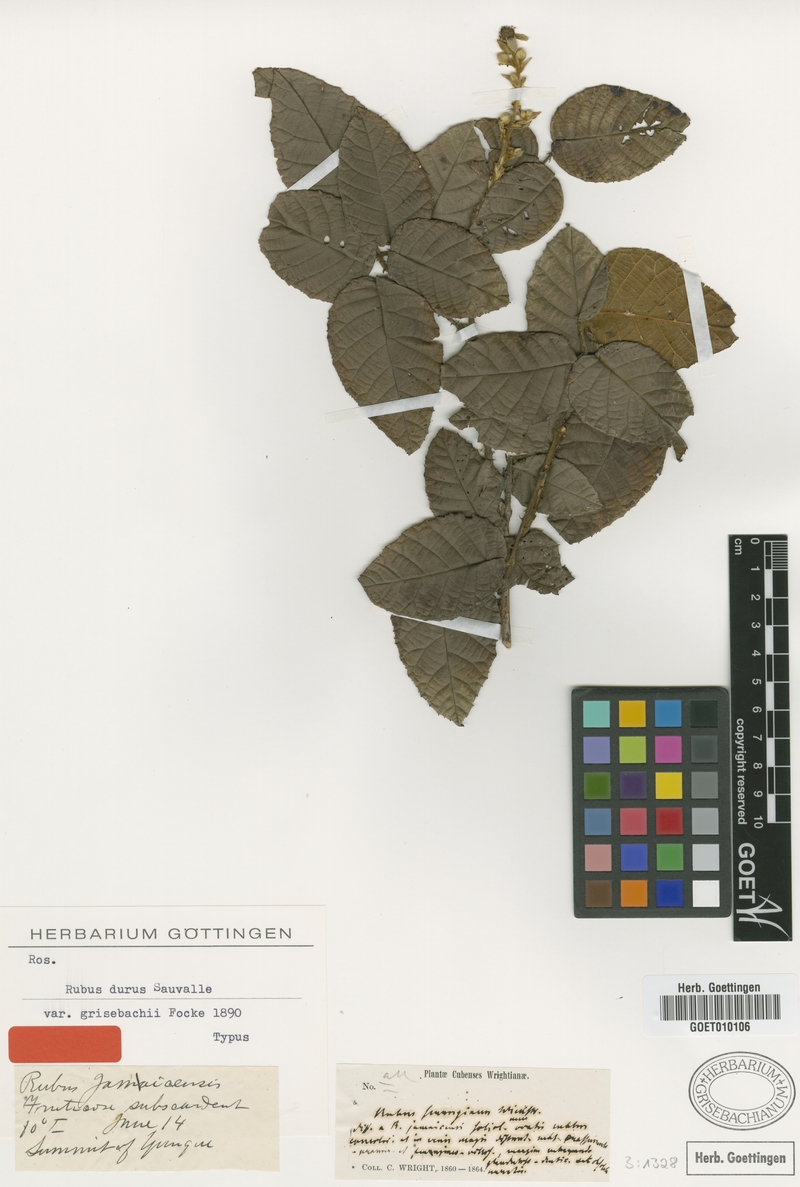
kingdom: Plantae
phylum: Tracheophyta
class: Magnoliopsida
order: Rosales
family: Rosaceae
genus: Rubus
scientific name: Rubus grisebachii
